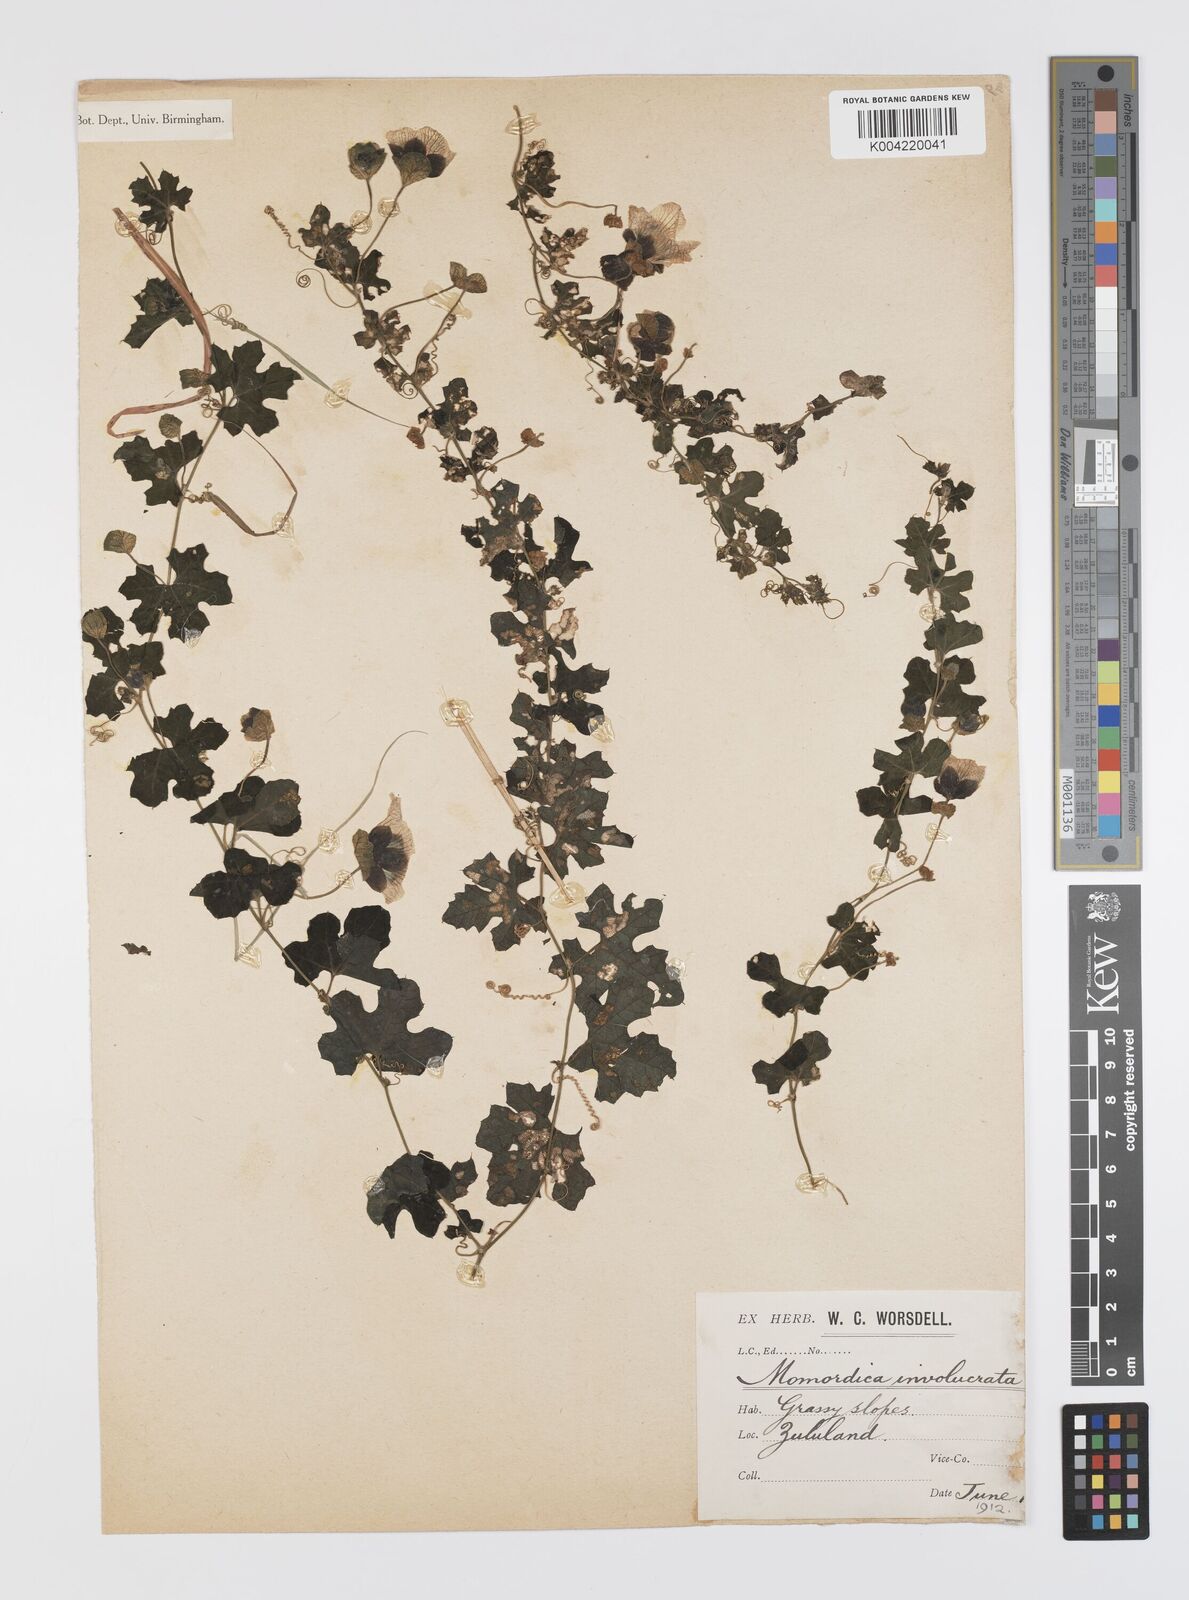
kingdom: Plantae
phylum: Tracheophyta
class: Magnoliopsida
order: Cucurbitales
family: Cucurbitaceae
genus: Momordica
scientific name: Momordica balsamina
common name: Southern balsampear
